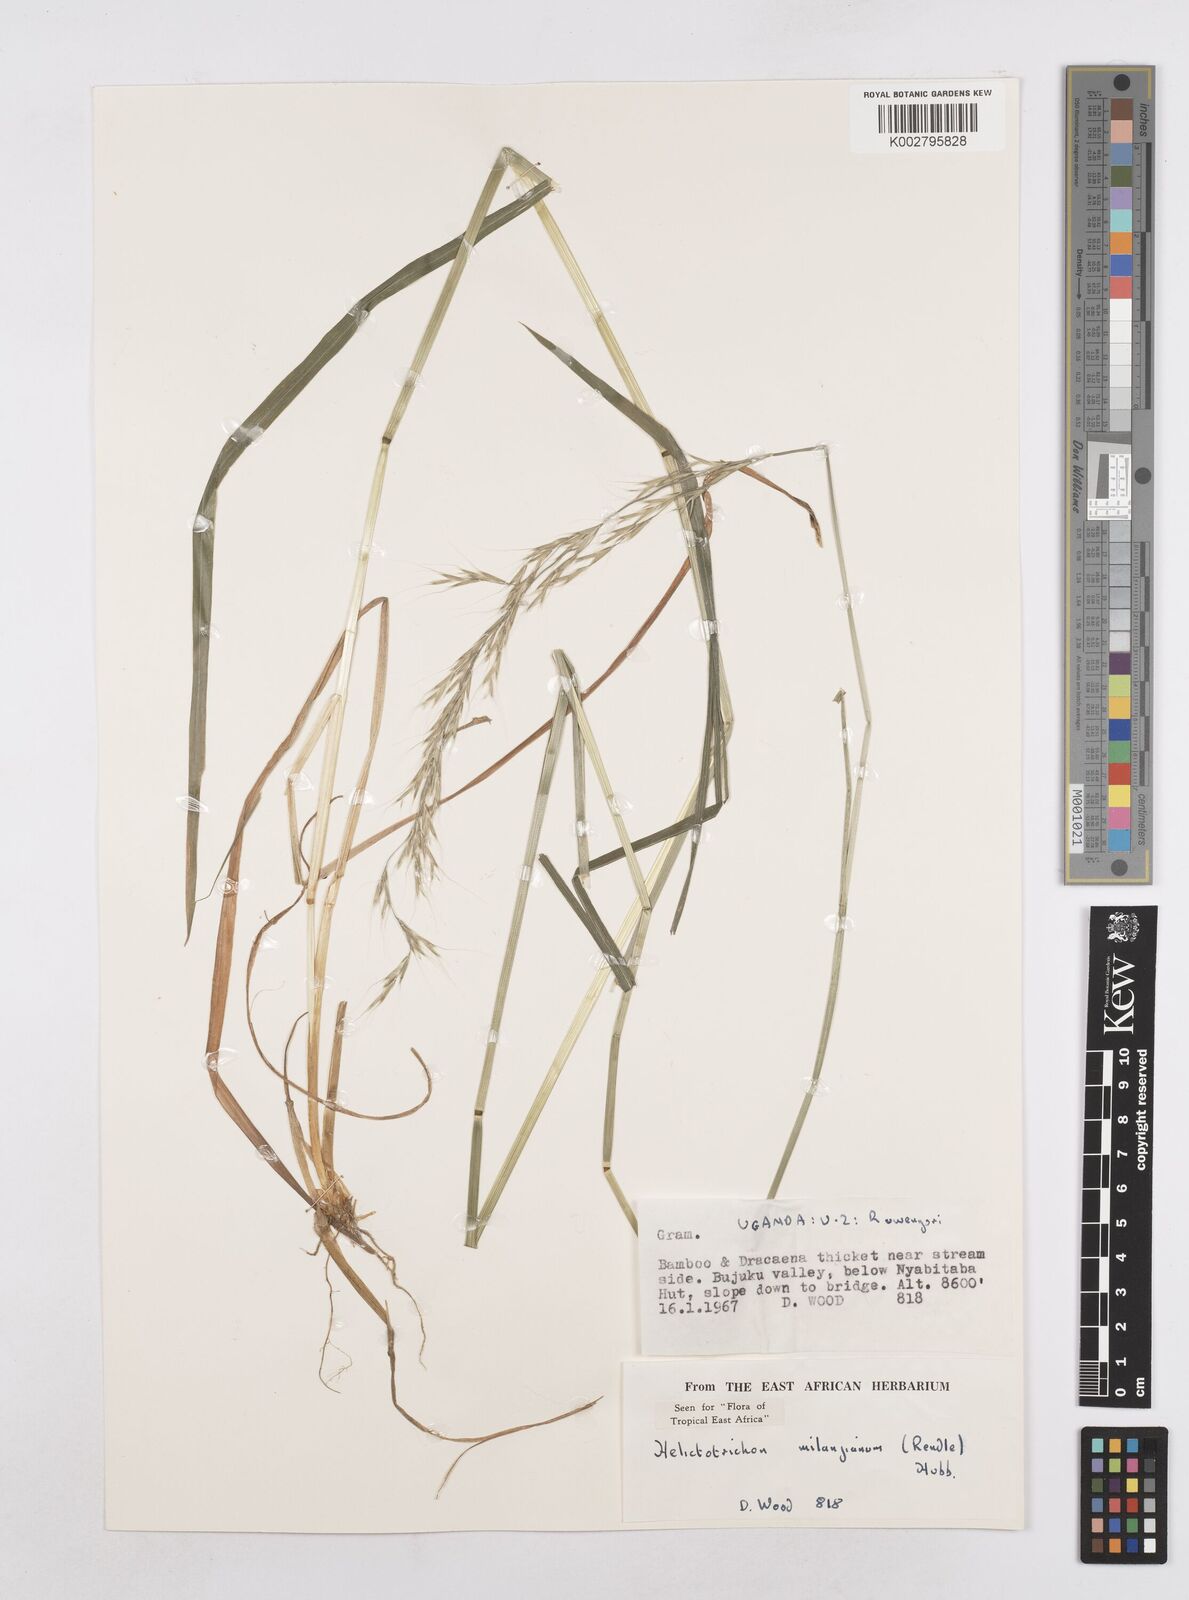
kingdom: Plantae
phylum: Tracheophyta
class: Liliopsida
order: Poales
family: Poaceae
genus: Trisetopsis
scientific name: Trisetopsis milanjiana
